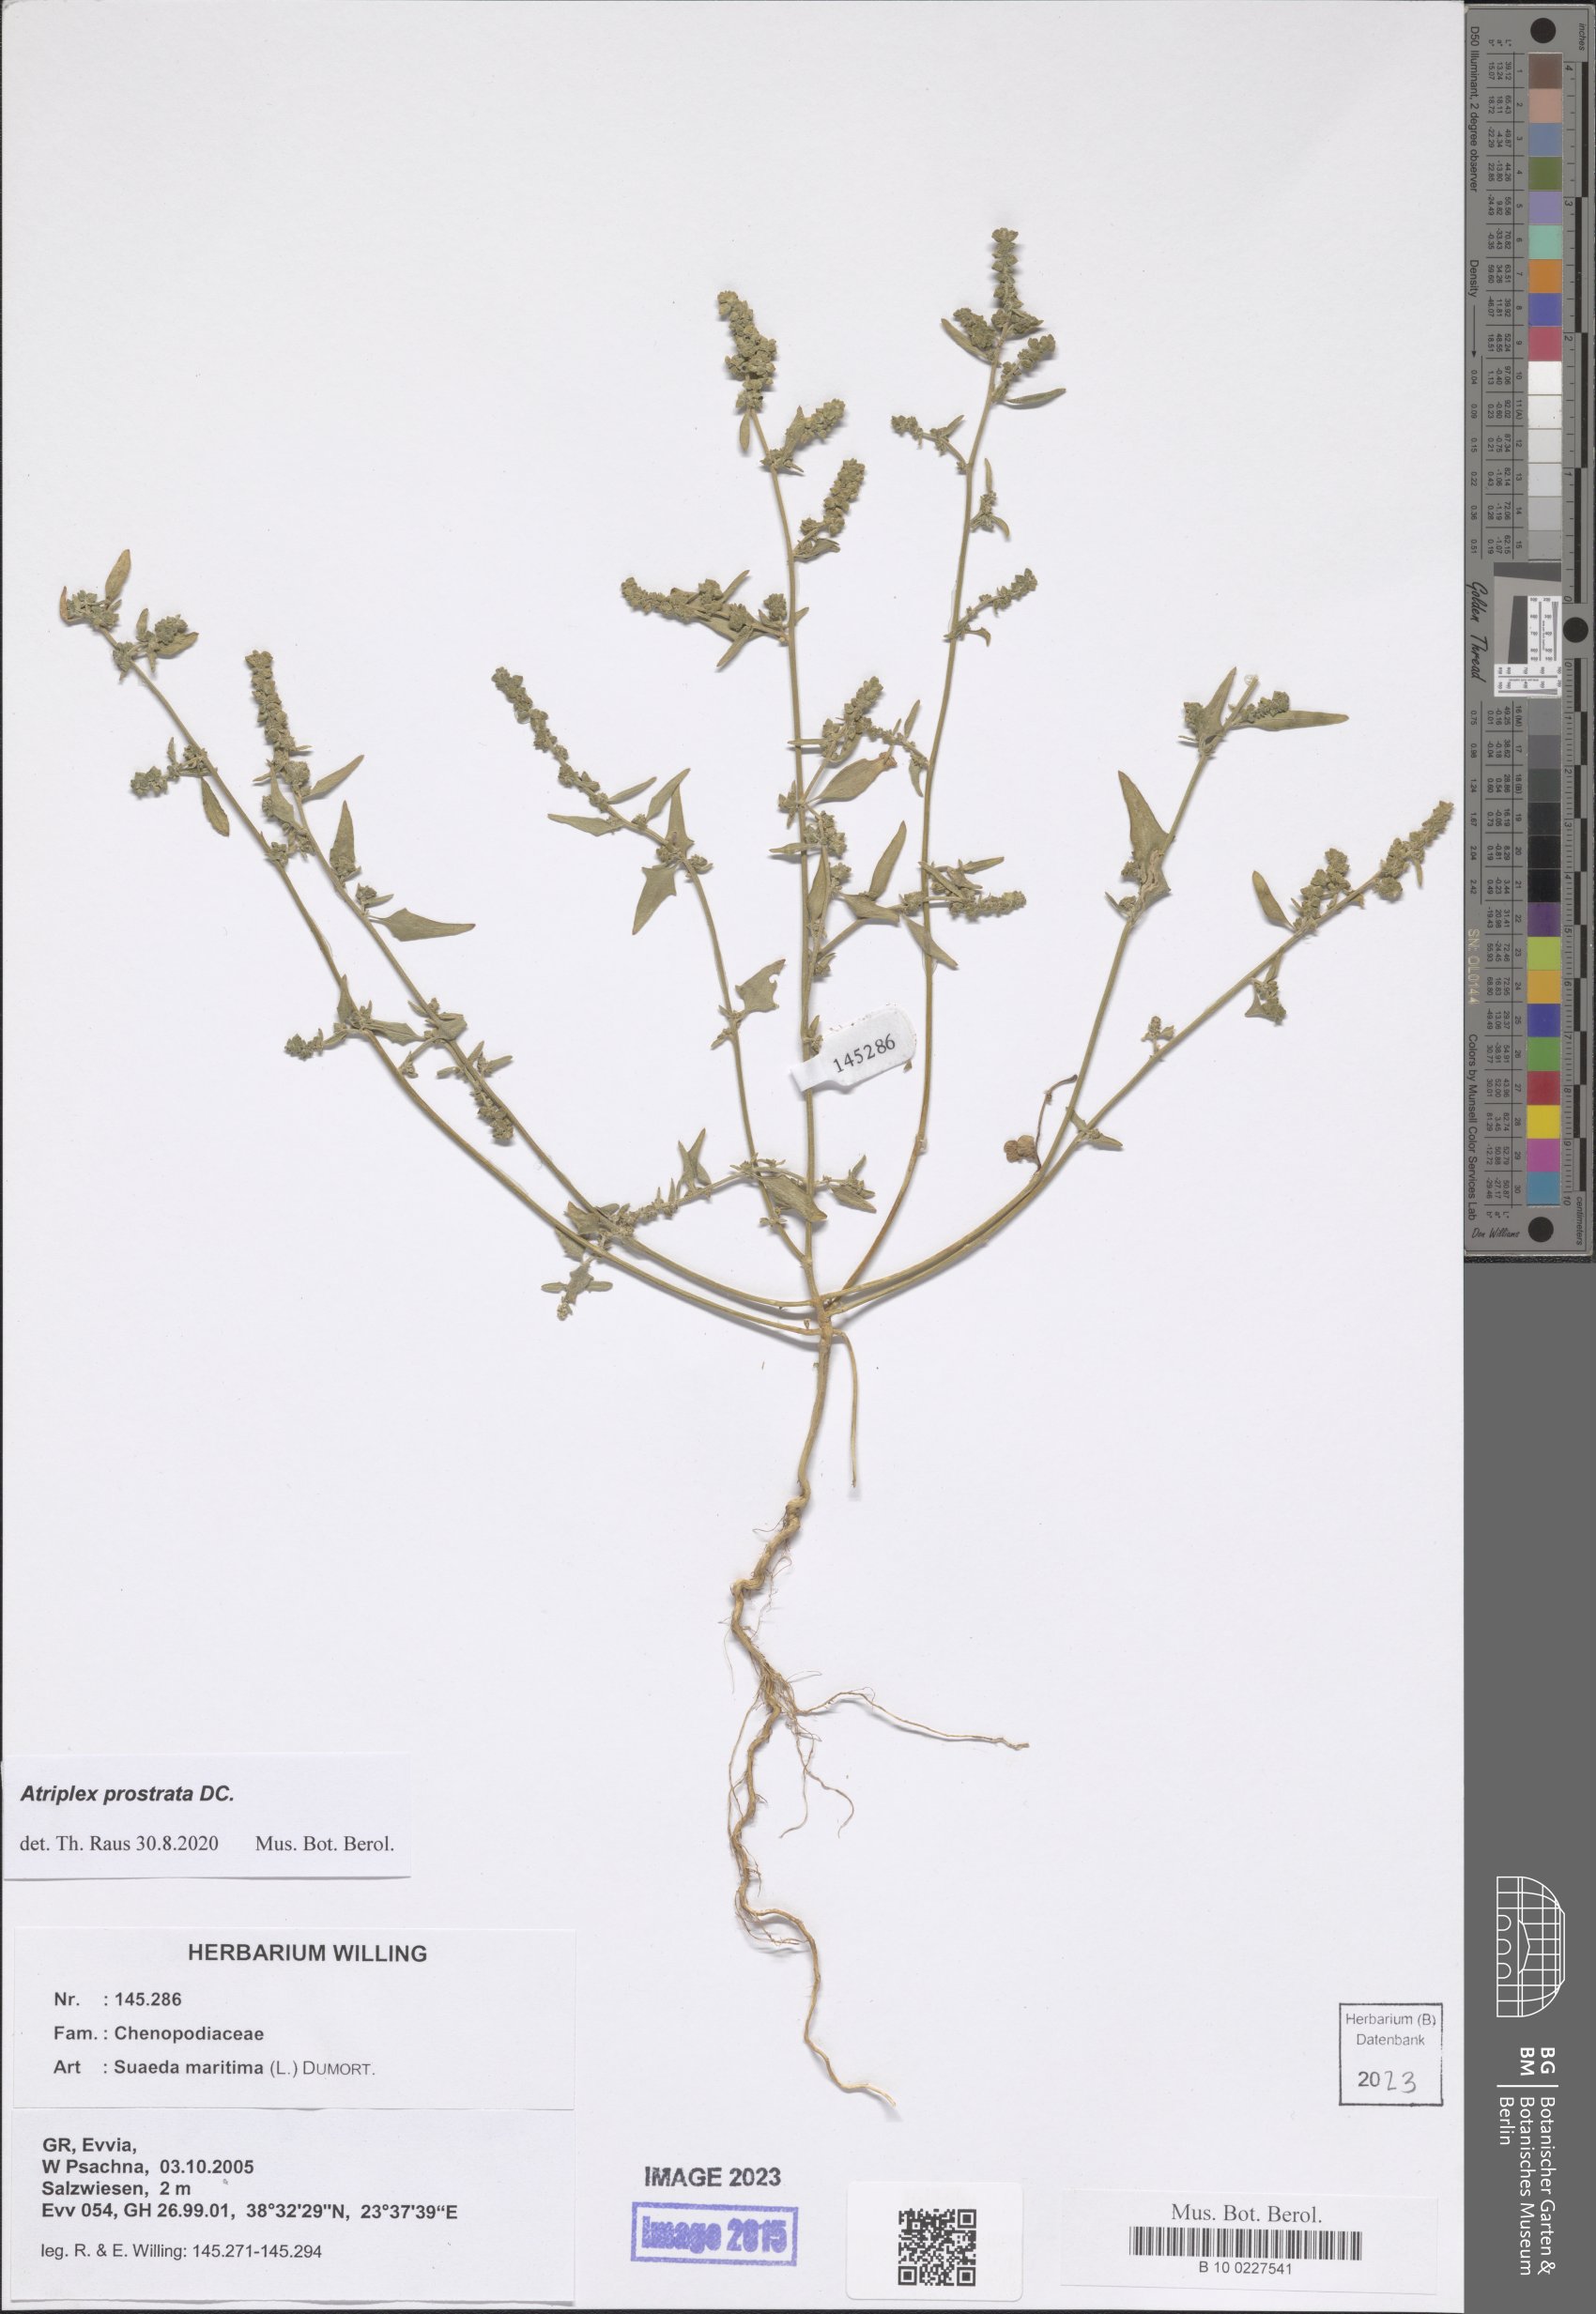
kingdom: Plantae
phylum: Tracheophyta
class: Magnoliopsida
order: Caryophyllales
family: Amaranthaceae
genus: Atriplex
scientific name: Atriplex prostrata
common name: Spear-leaved orache
